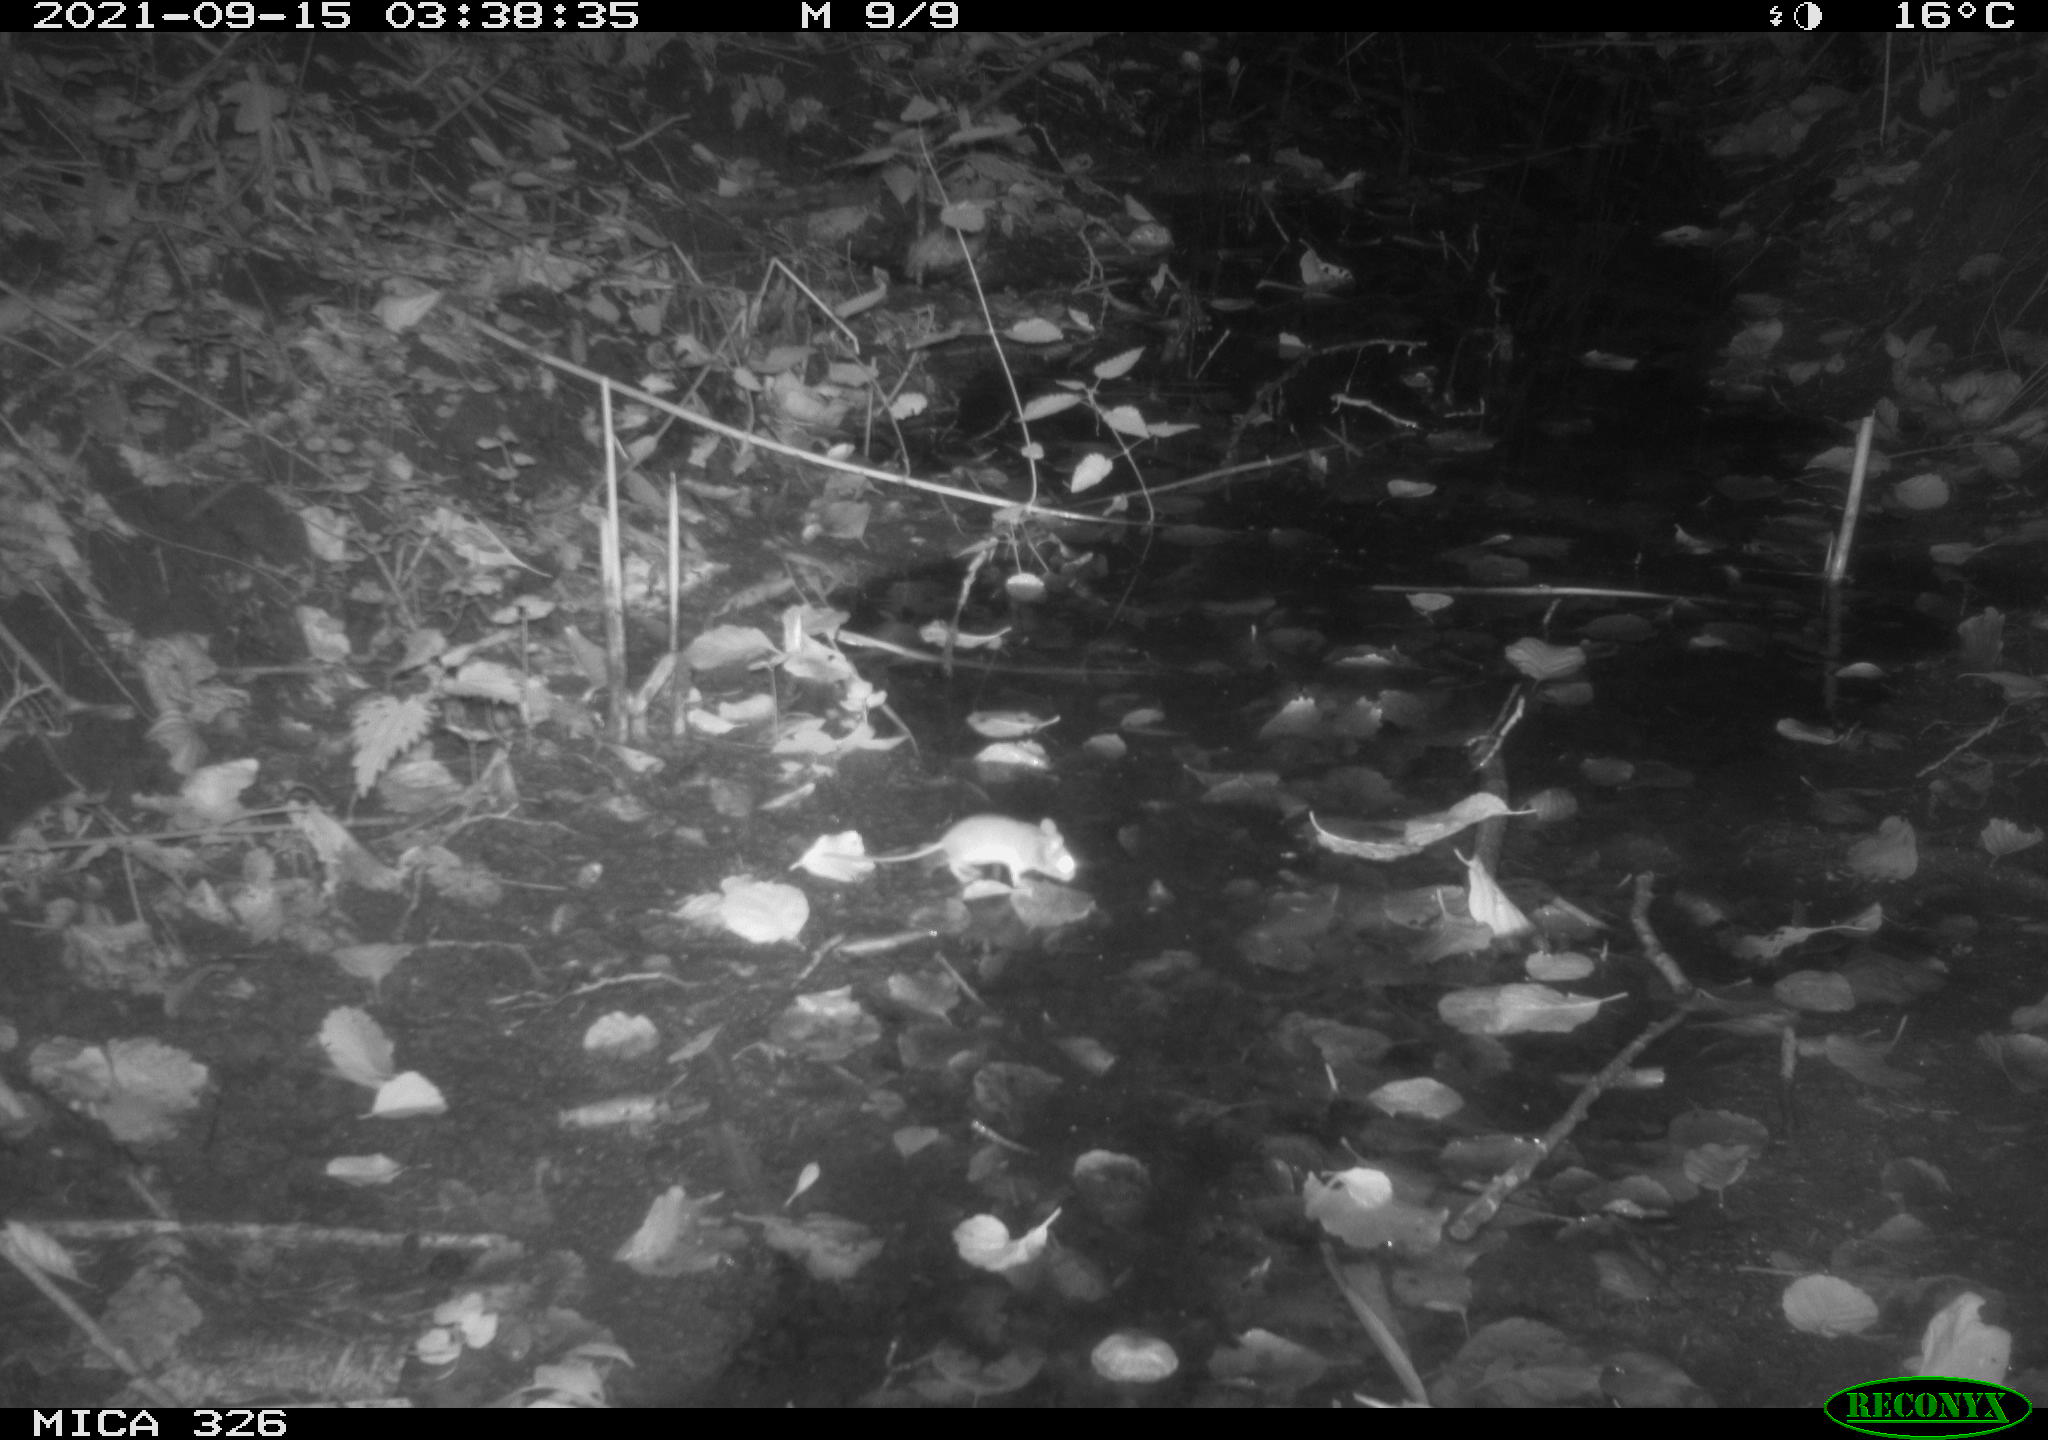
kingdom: Animalia
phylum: Chordata
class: Mammalia
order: Rodentia
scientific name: Rodentia
